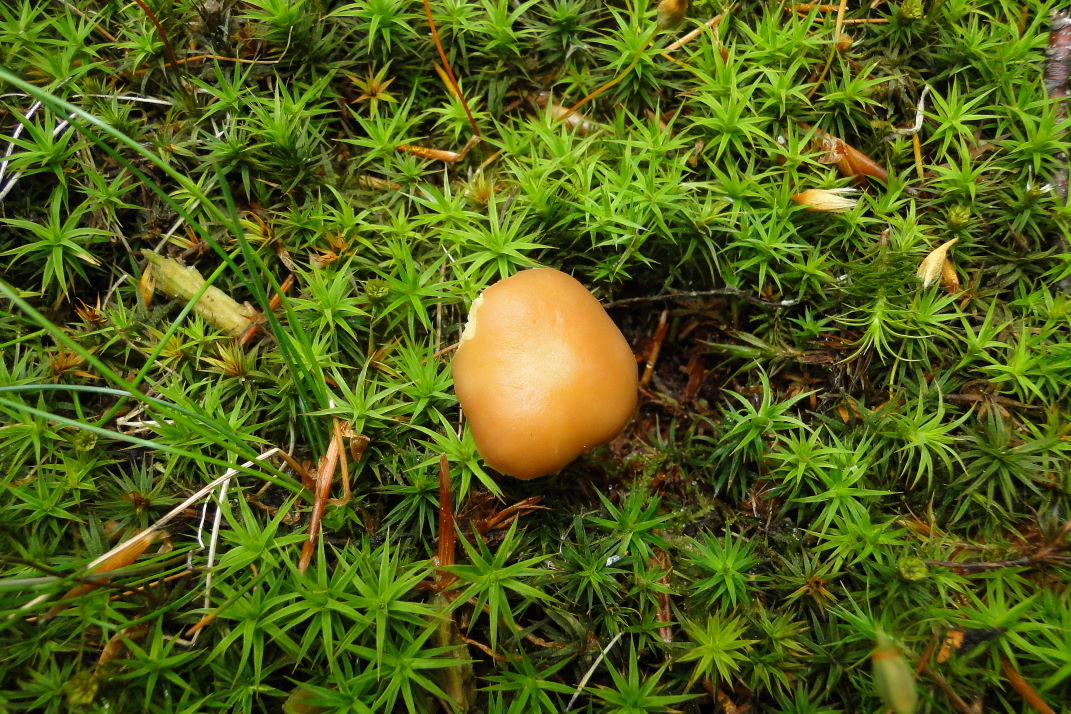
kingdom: Fungi
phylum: Basidiomycota
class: Agaricomycetes
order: Agaricales
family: Omphalotaceae
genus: Gymnopus
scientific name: Gymnopus ocior
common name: mørk fladhat
